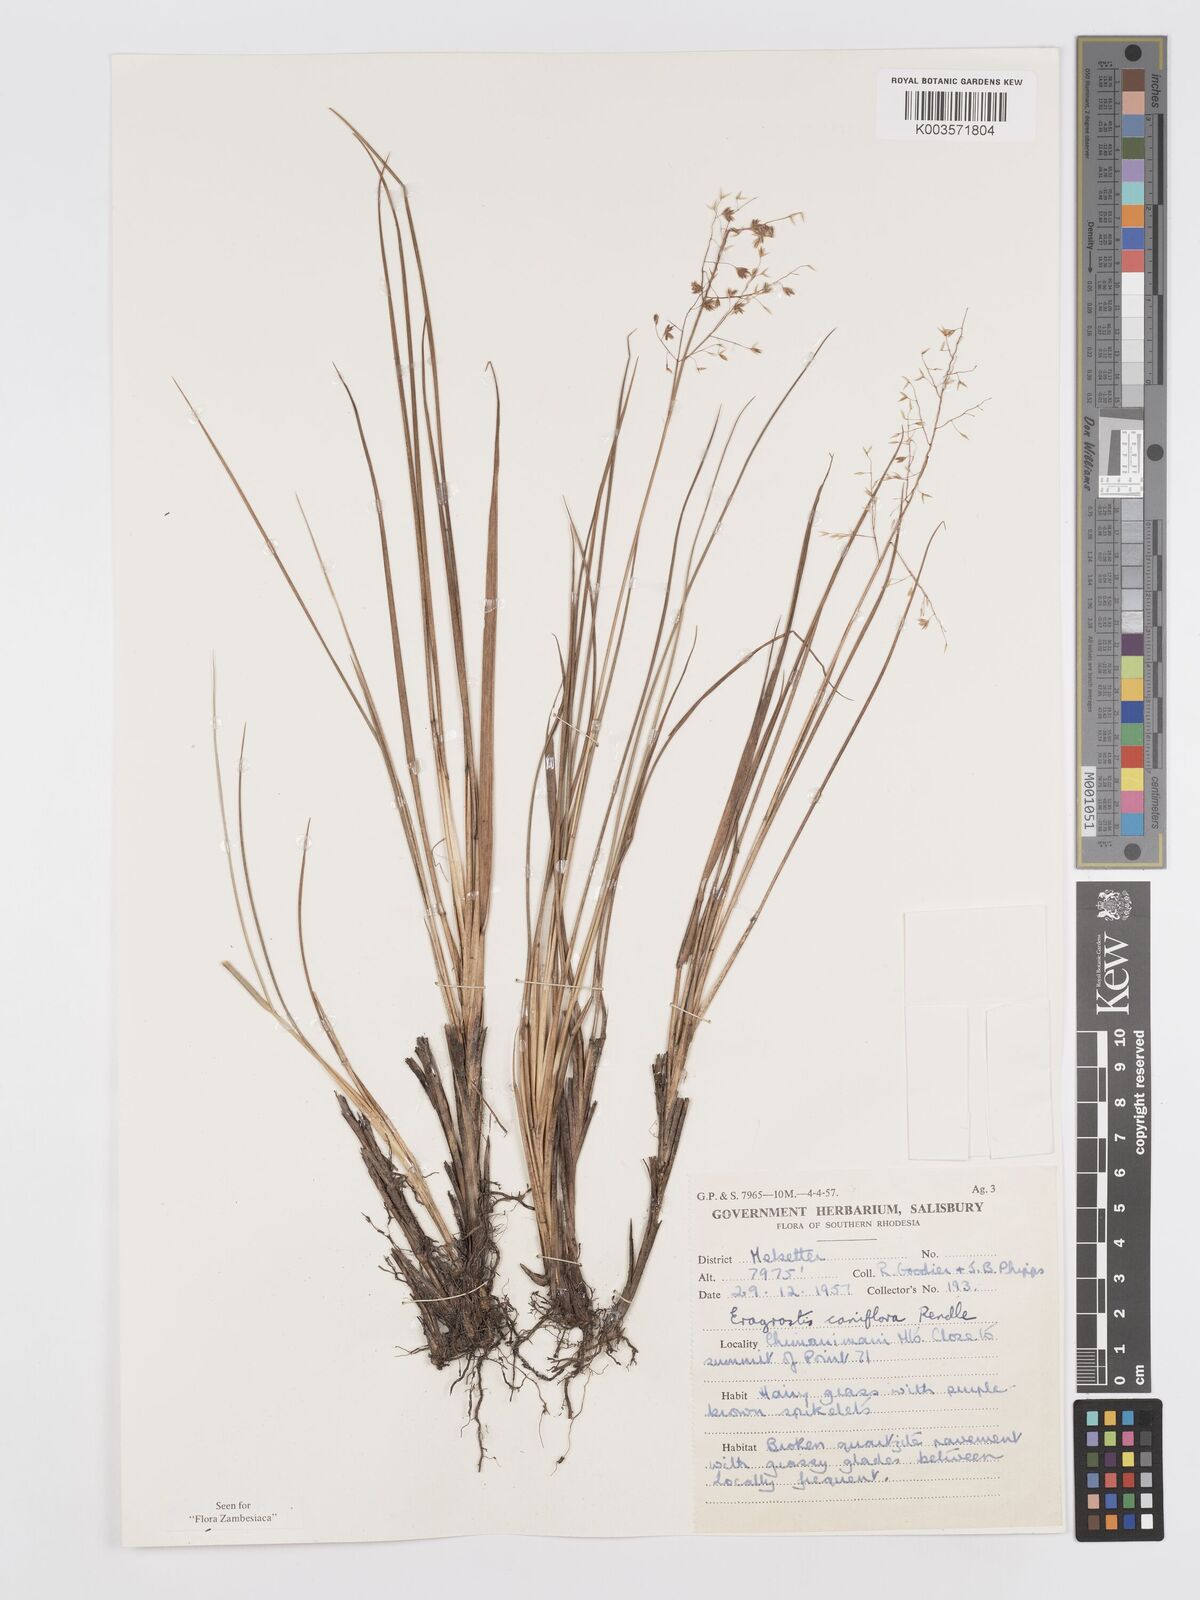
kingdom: Plantae
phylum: Tracheophyta
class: Liliopsida
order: Poales
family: Poaceae
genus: Eragrostis
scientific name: Eragrostis caniflora
